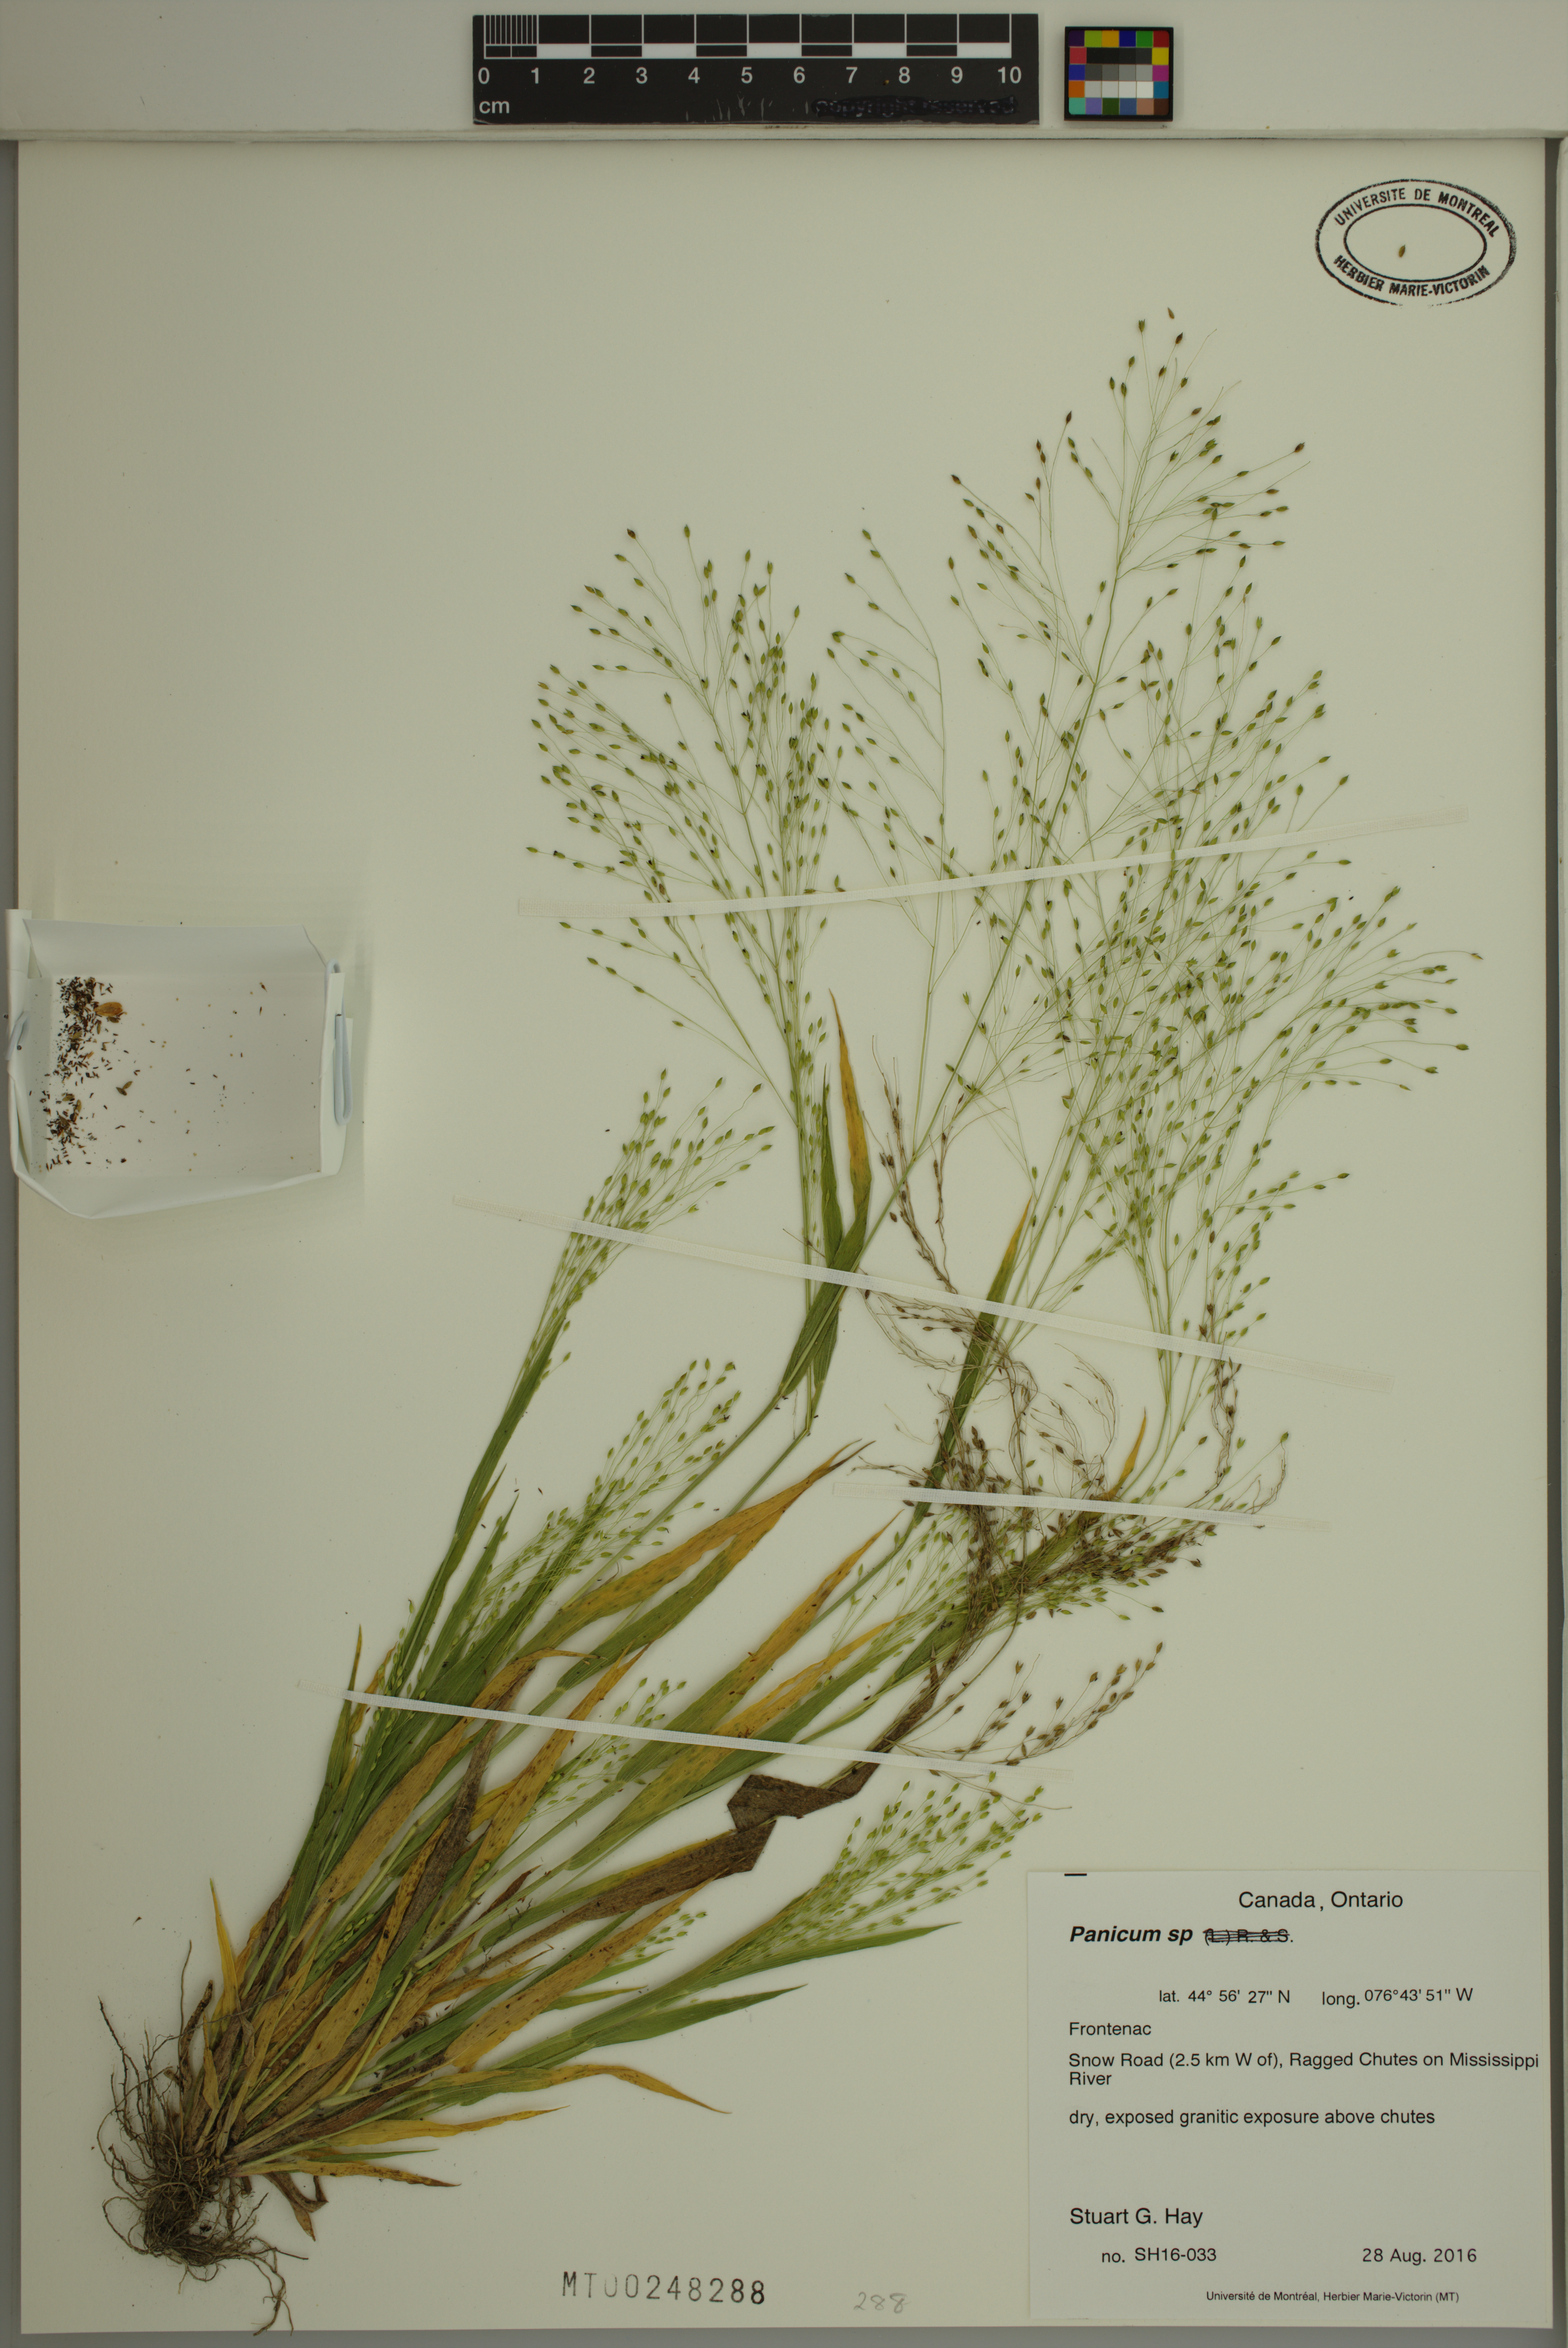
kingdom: Plantae
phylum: Tracheophyta
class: Liliopsida
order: Poales
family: Poaceae
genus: Panicum
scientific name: Panicum
